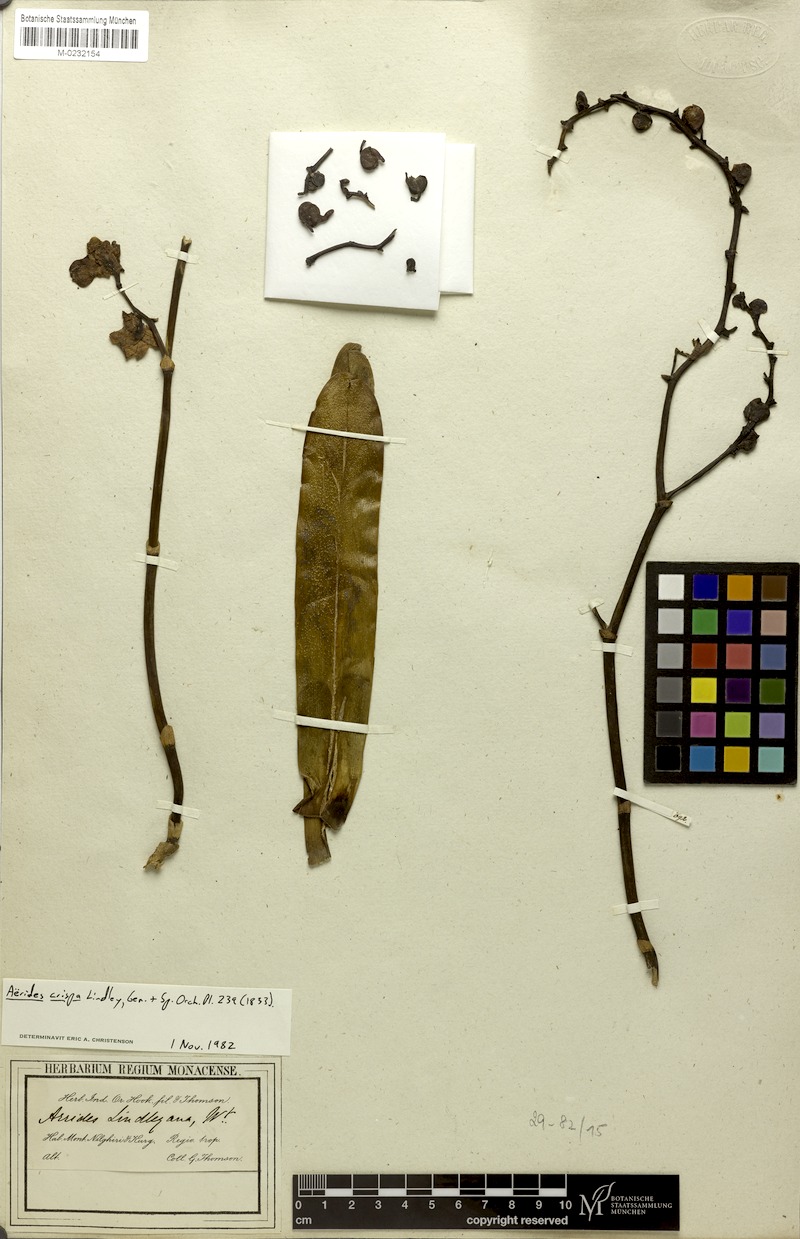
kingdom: Plantae
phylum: Tracheophyta
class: Liliopsida
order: Asparagales
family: Orchidaceae
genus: Aerides
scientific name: Aerides crispa
